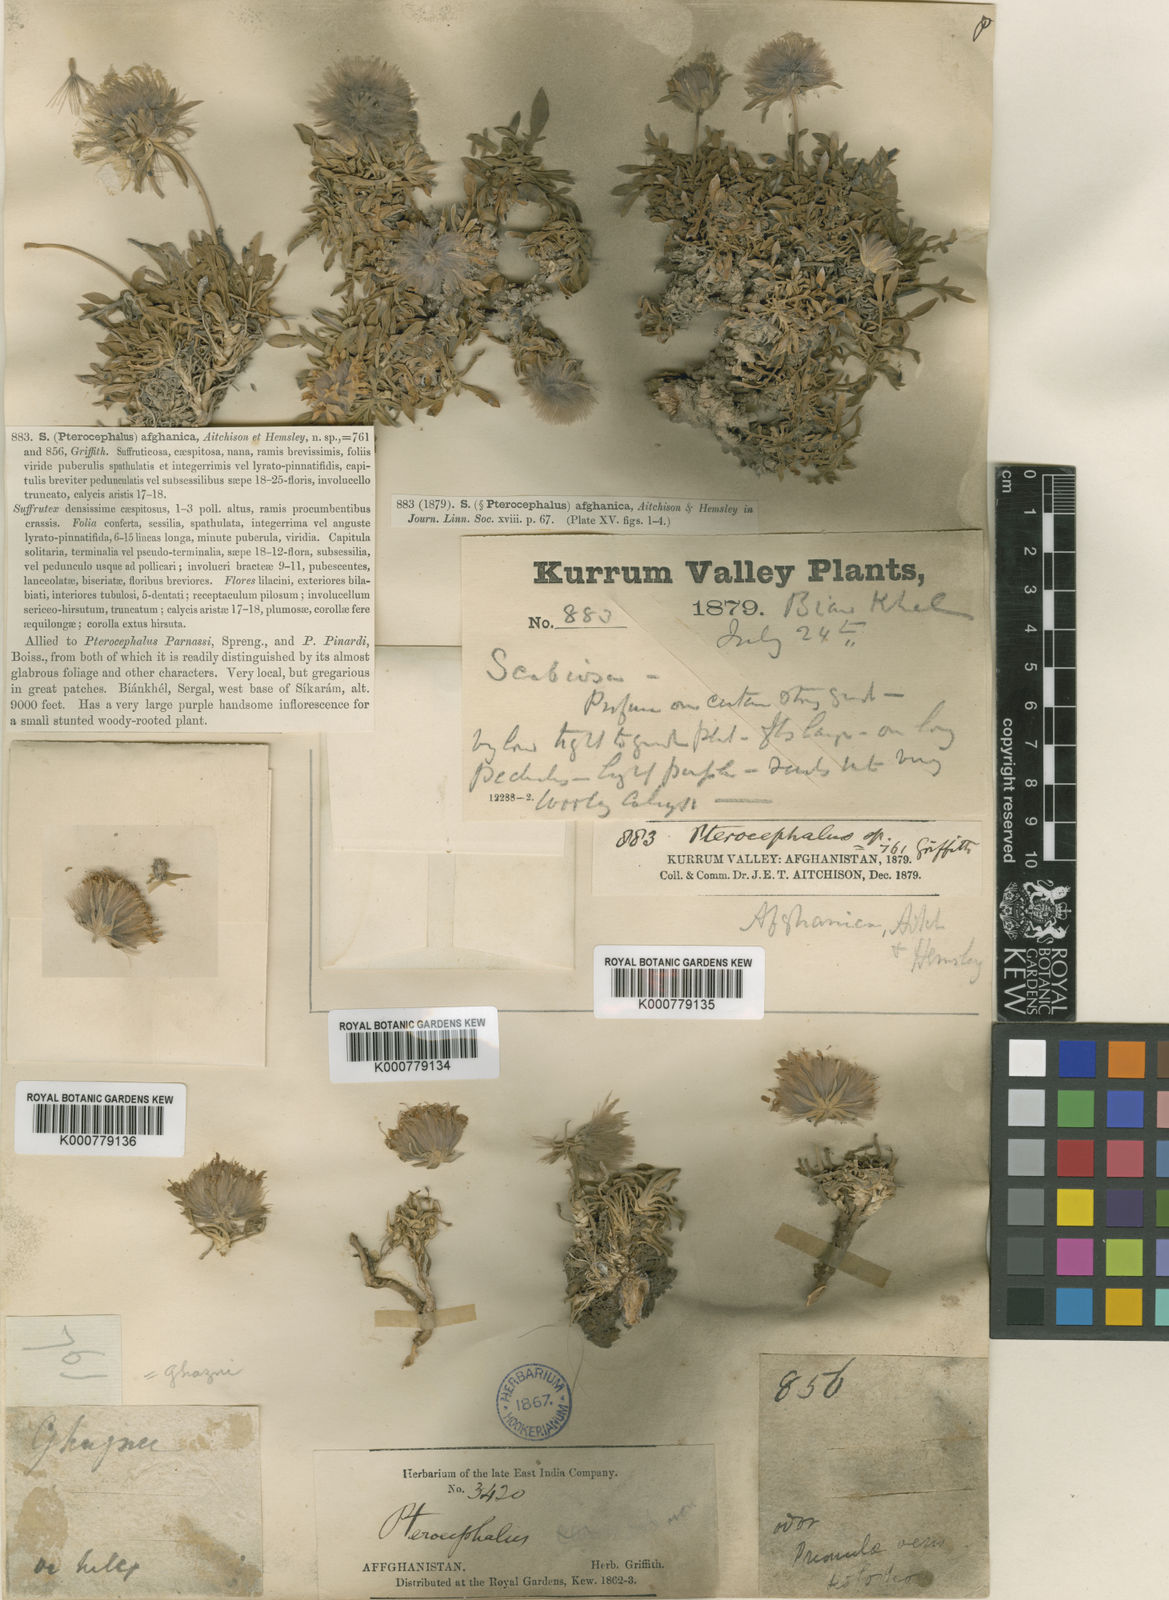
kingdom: Plantae
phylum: Tracheophyta
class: Magnoliopsida
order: Dipsacales
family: Caprifoliaceae
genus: Pterocephalus
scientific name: Pterocephalus afghanicus
